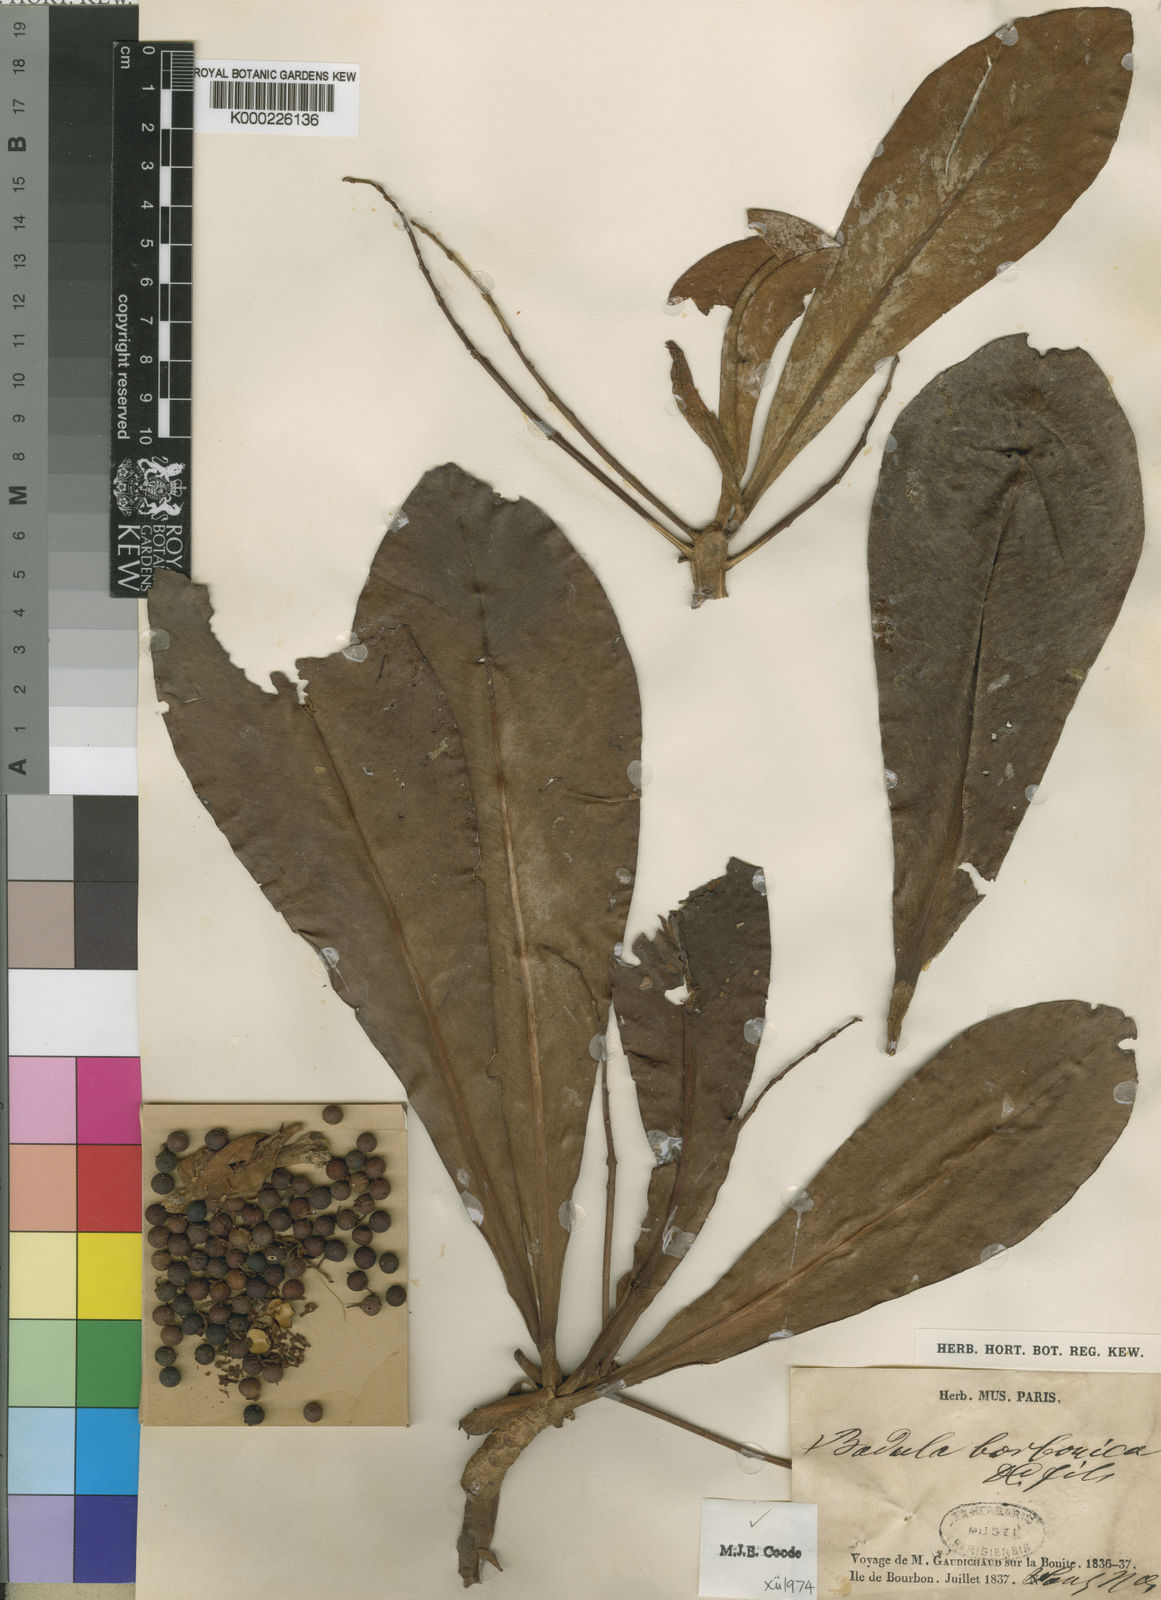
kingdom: Plantae
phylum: Tracheophyta
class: Magnoliopsida
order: Ericales
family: Primulaceae
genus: Badula
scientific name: Badula borbonica
